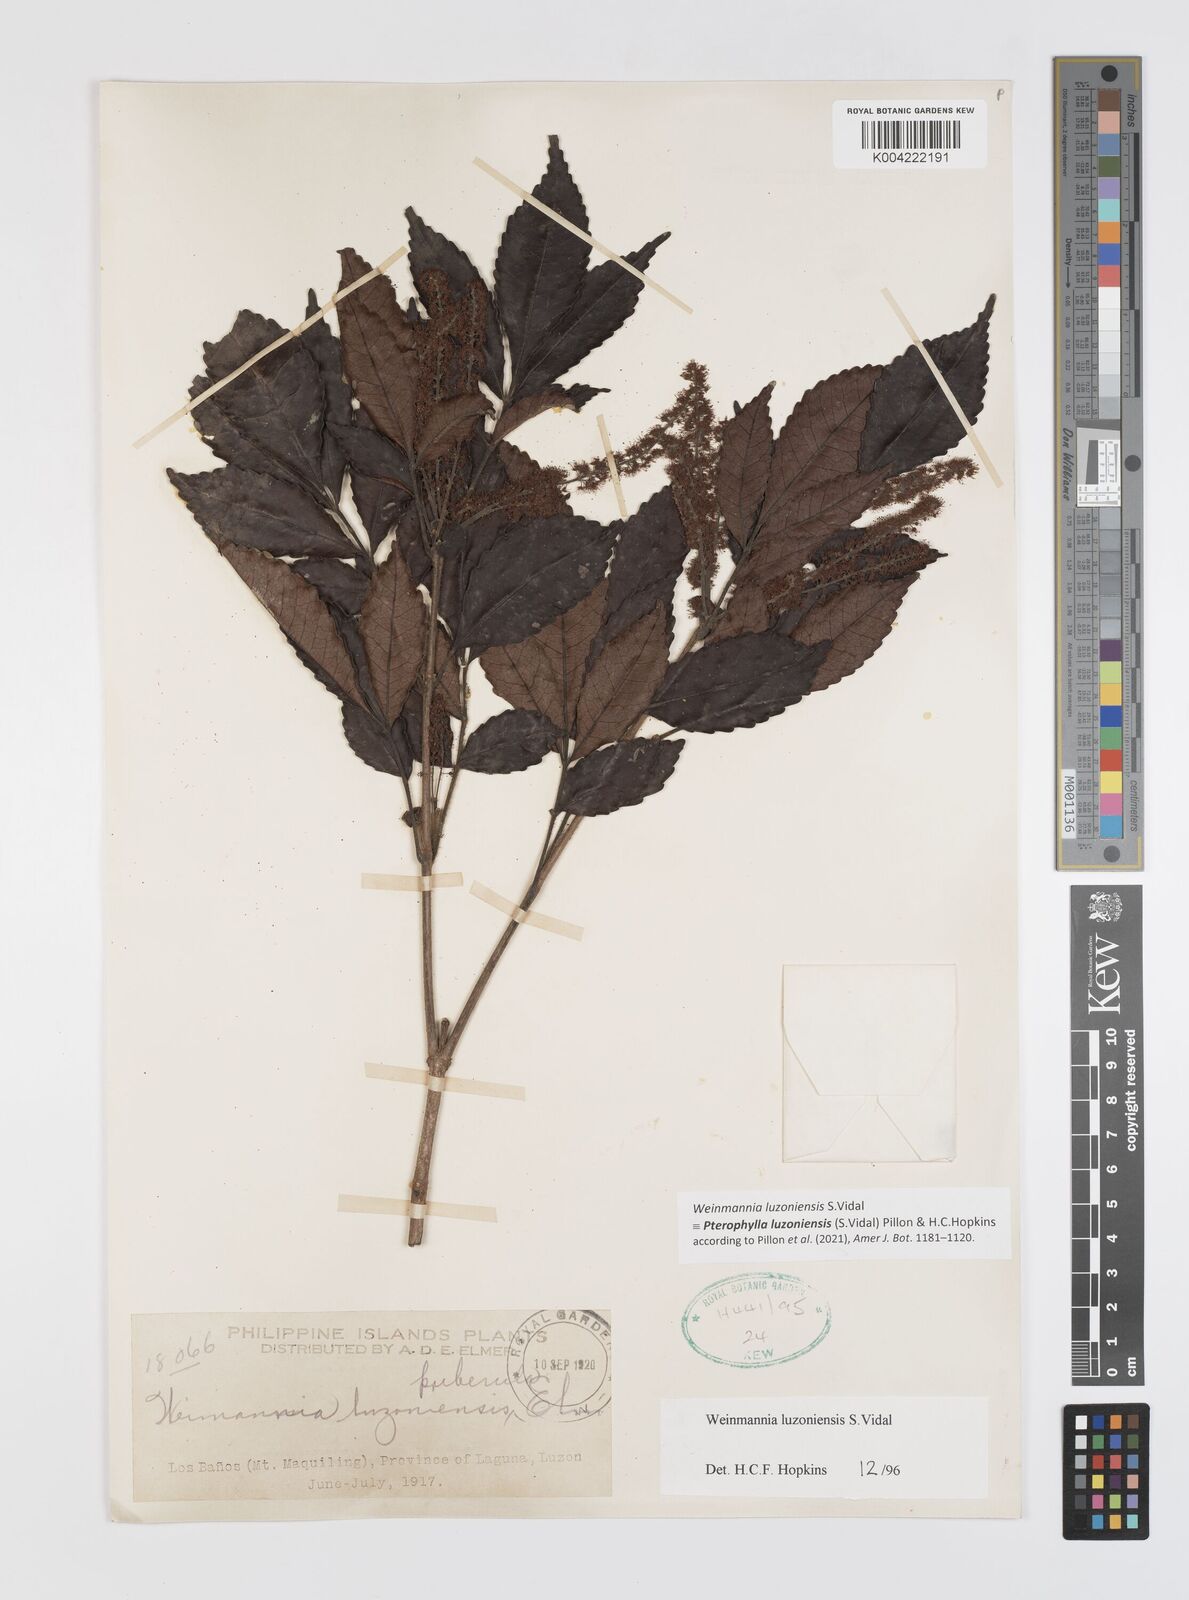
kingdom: Plantae
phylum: Tracheophyta
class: Magnoliopsida
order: Oxalidales
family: Cunoniaceae
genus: Pterophylla
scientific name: Pterophylla luzoniensis
